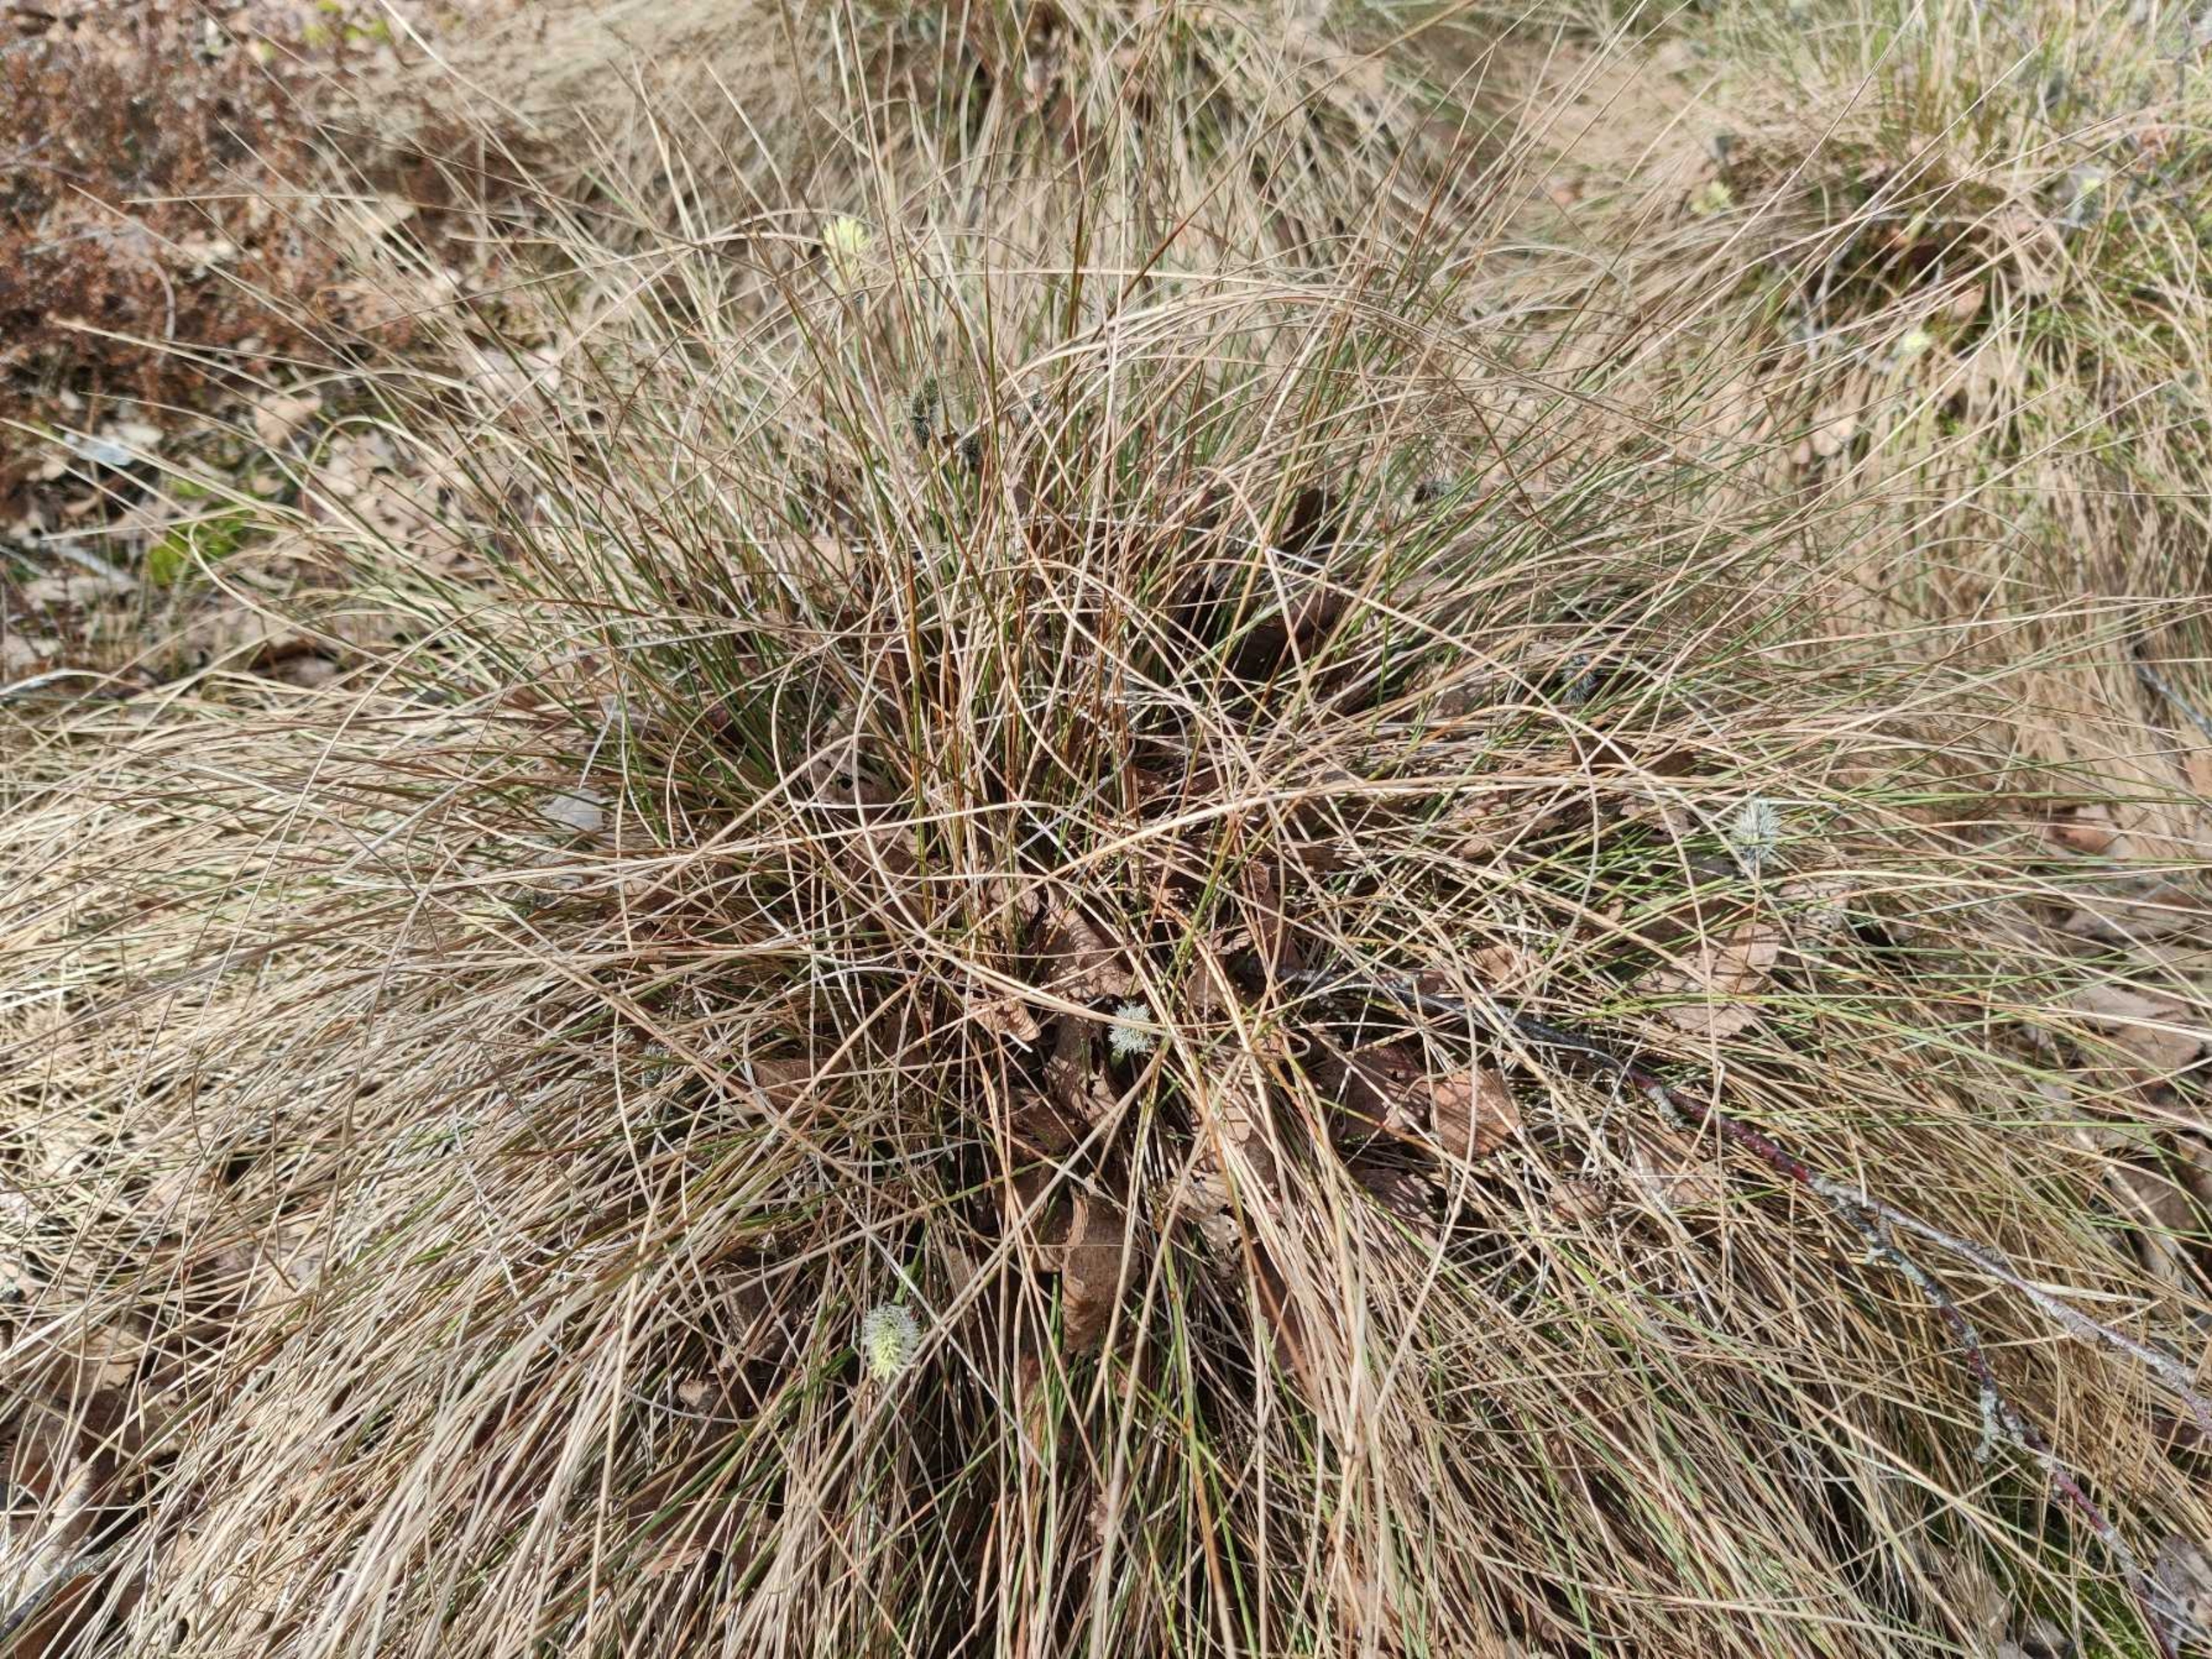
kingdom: Plantae
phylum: Tracheophyta
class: Liliopsida
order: Poales
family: Cyperaceae
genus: Eriophorum
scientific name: Eriophorum vaginatum
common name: Tue-kæruld
